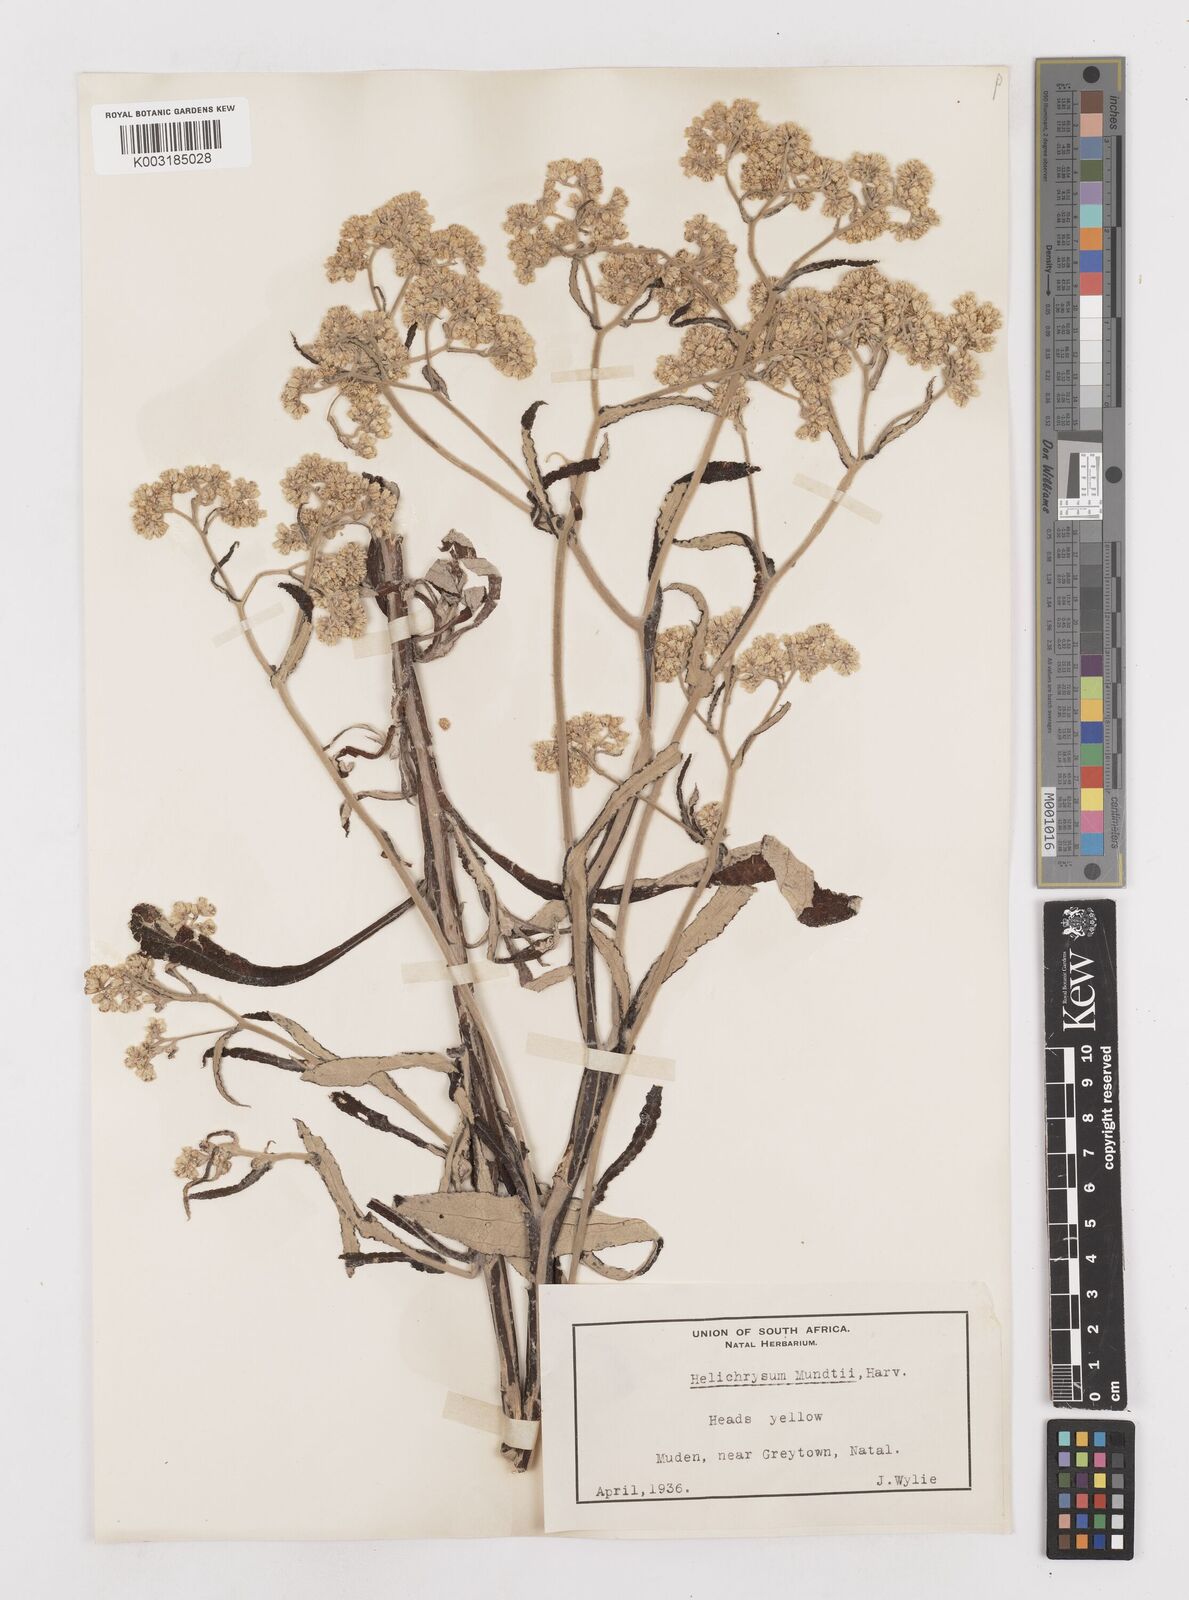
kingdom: Plantae
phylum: Tracheophyta
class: Magnoliopsida
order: Asterales
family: Asteraceae
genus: Helichrysum
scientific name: Helichrysum mundii
